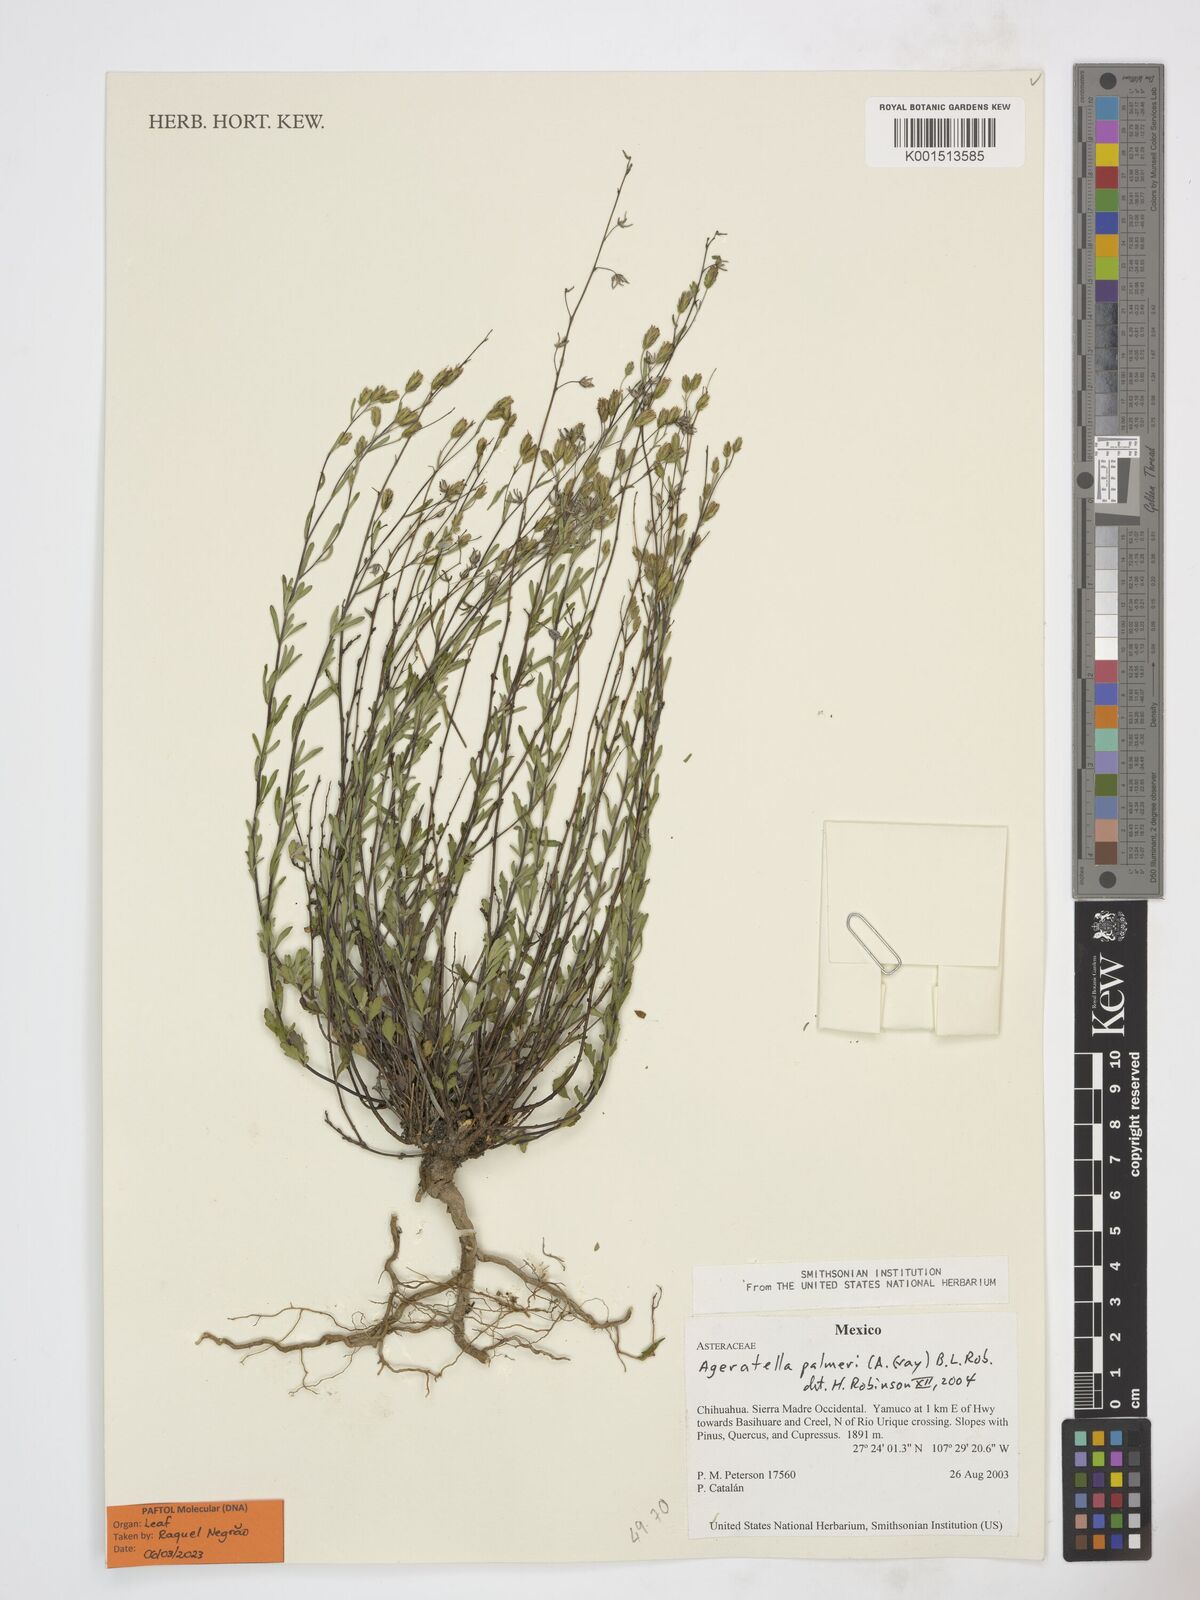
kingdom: Plantae
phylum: Tracheophyta
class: Magnoliopsida
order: Asterales
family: Asteraceae
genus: Ageratella
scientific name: Ageratella microphylla
